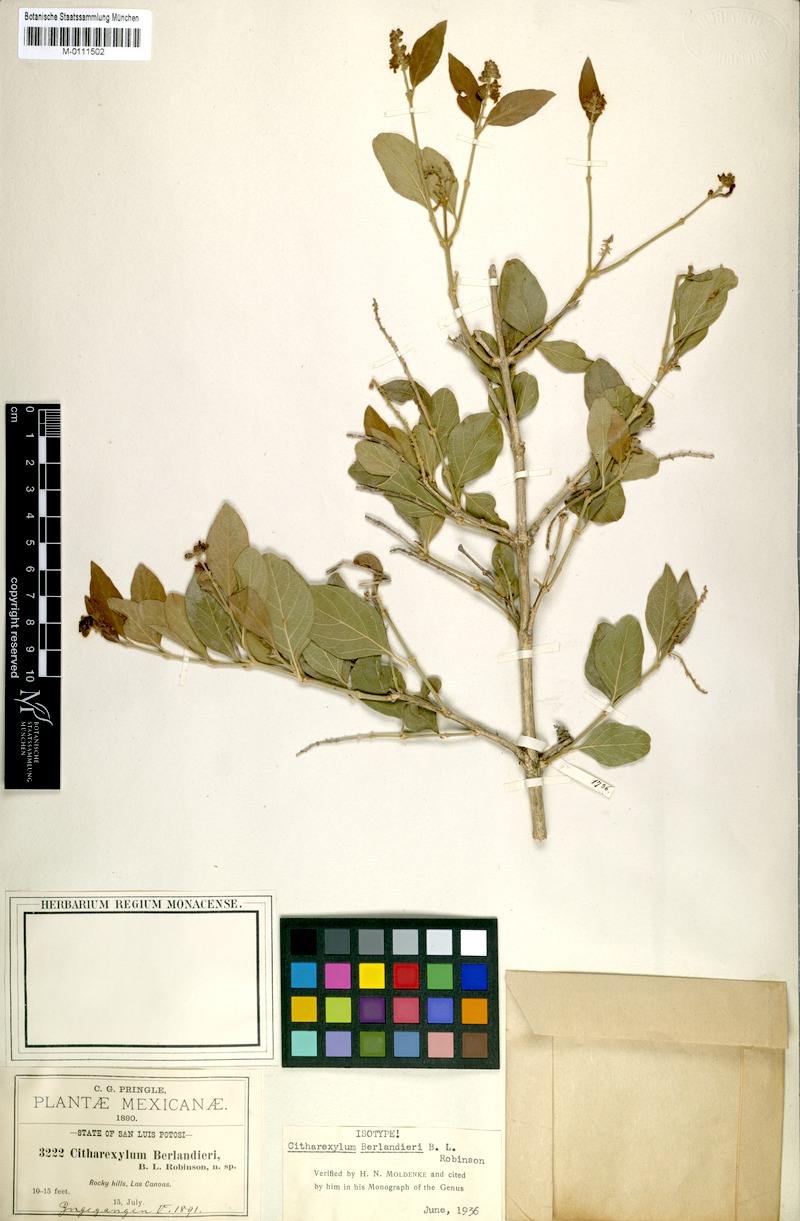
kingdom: Plantae
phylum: Tracheophyta
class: Magnoliopsida
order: Lamiales
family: Verbenaceae
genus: Citharexylum
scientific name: Citharexylum berlandieri
